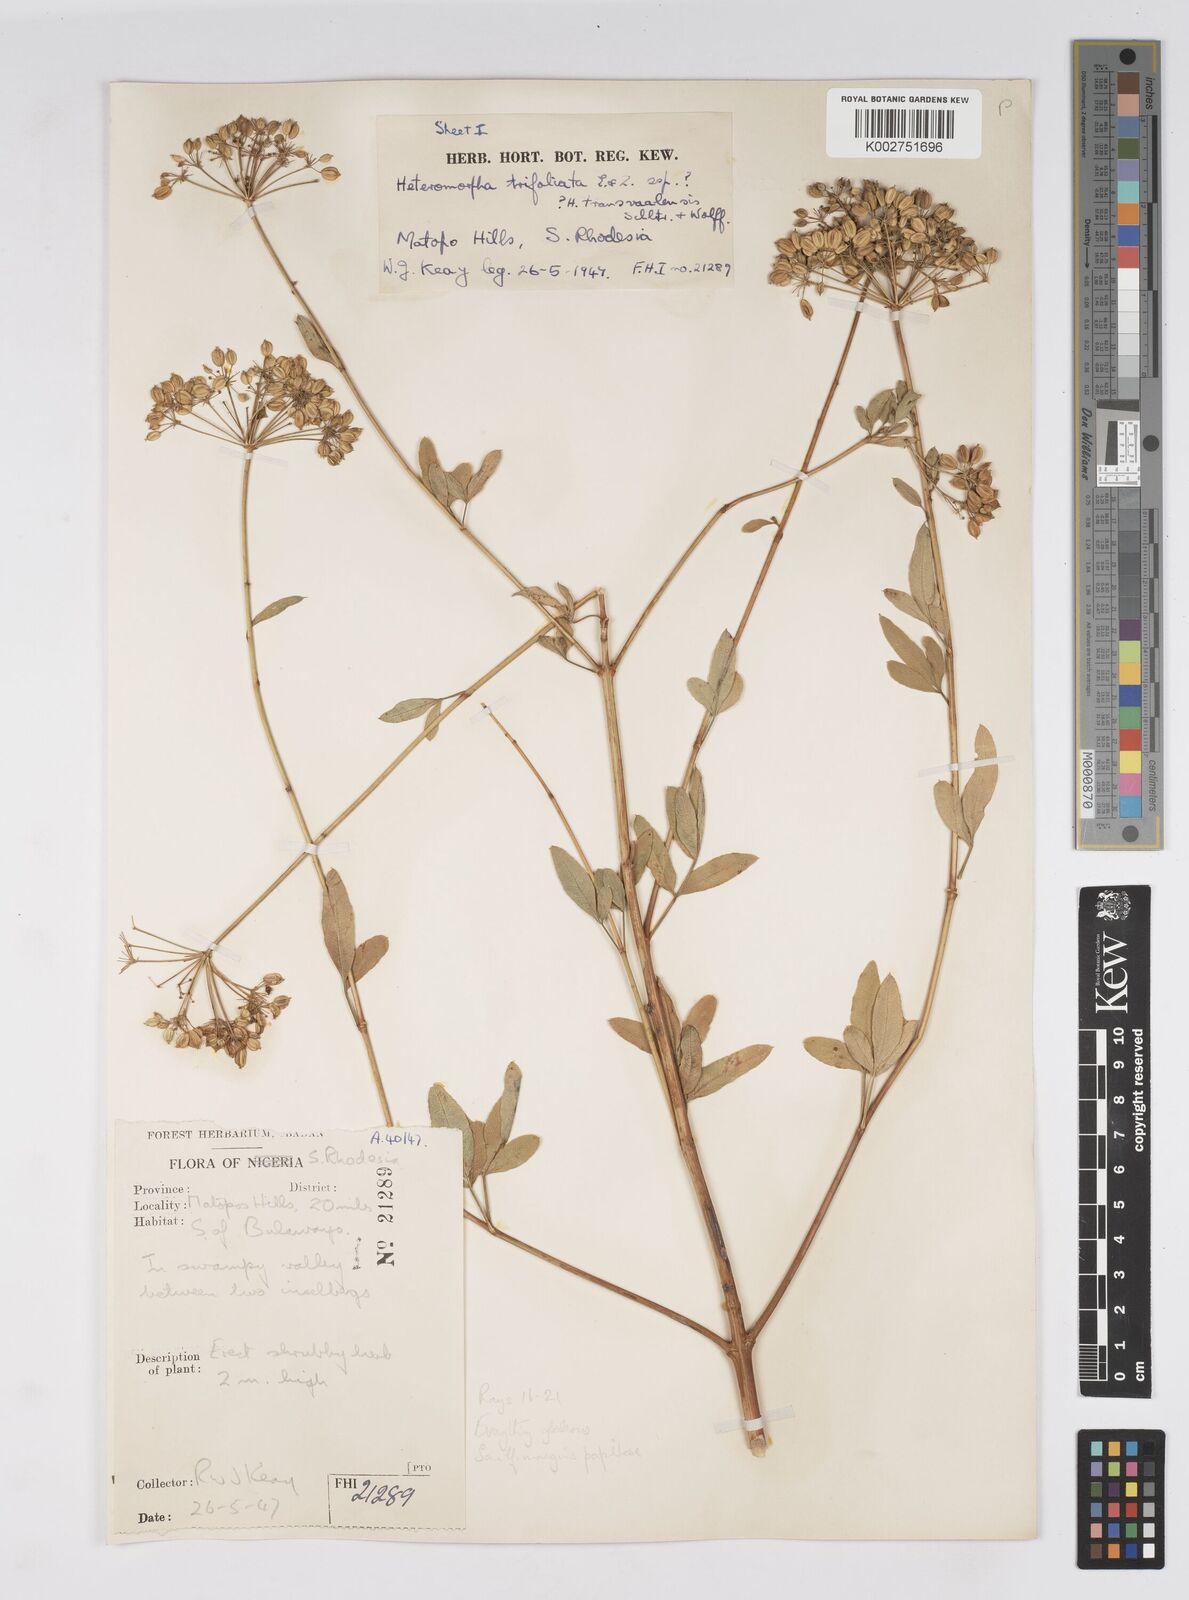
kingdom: Plantae
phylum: Tracheophyta
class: Magnoliopsida
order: Apiales
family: Apiaceae
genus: Heteromorpha
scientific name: Heteromorpha stenophylla
